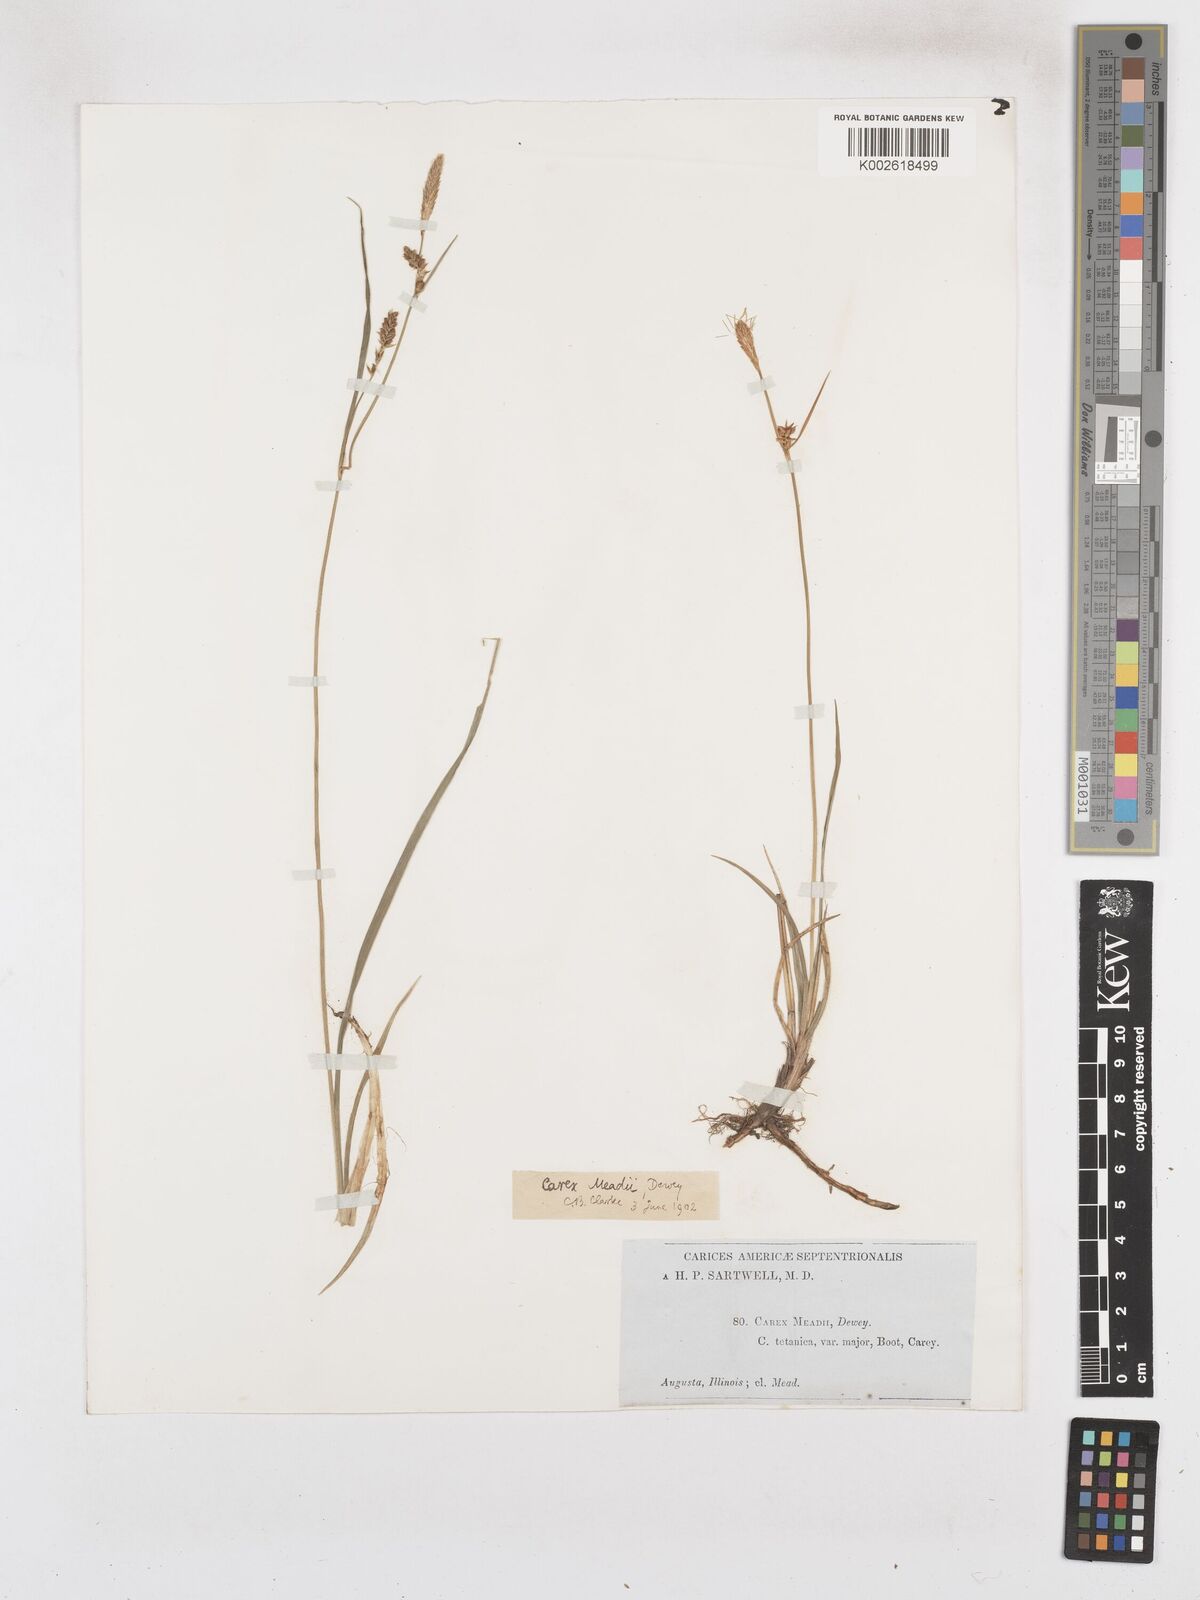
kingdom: Plantae
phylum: Tracheophyta
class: Liliopsida
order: Poales
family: Cyperaceae
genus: Carex
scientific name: Carex meadii
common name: Mead's sedge
